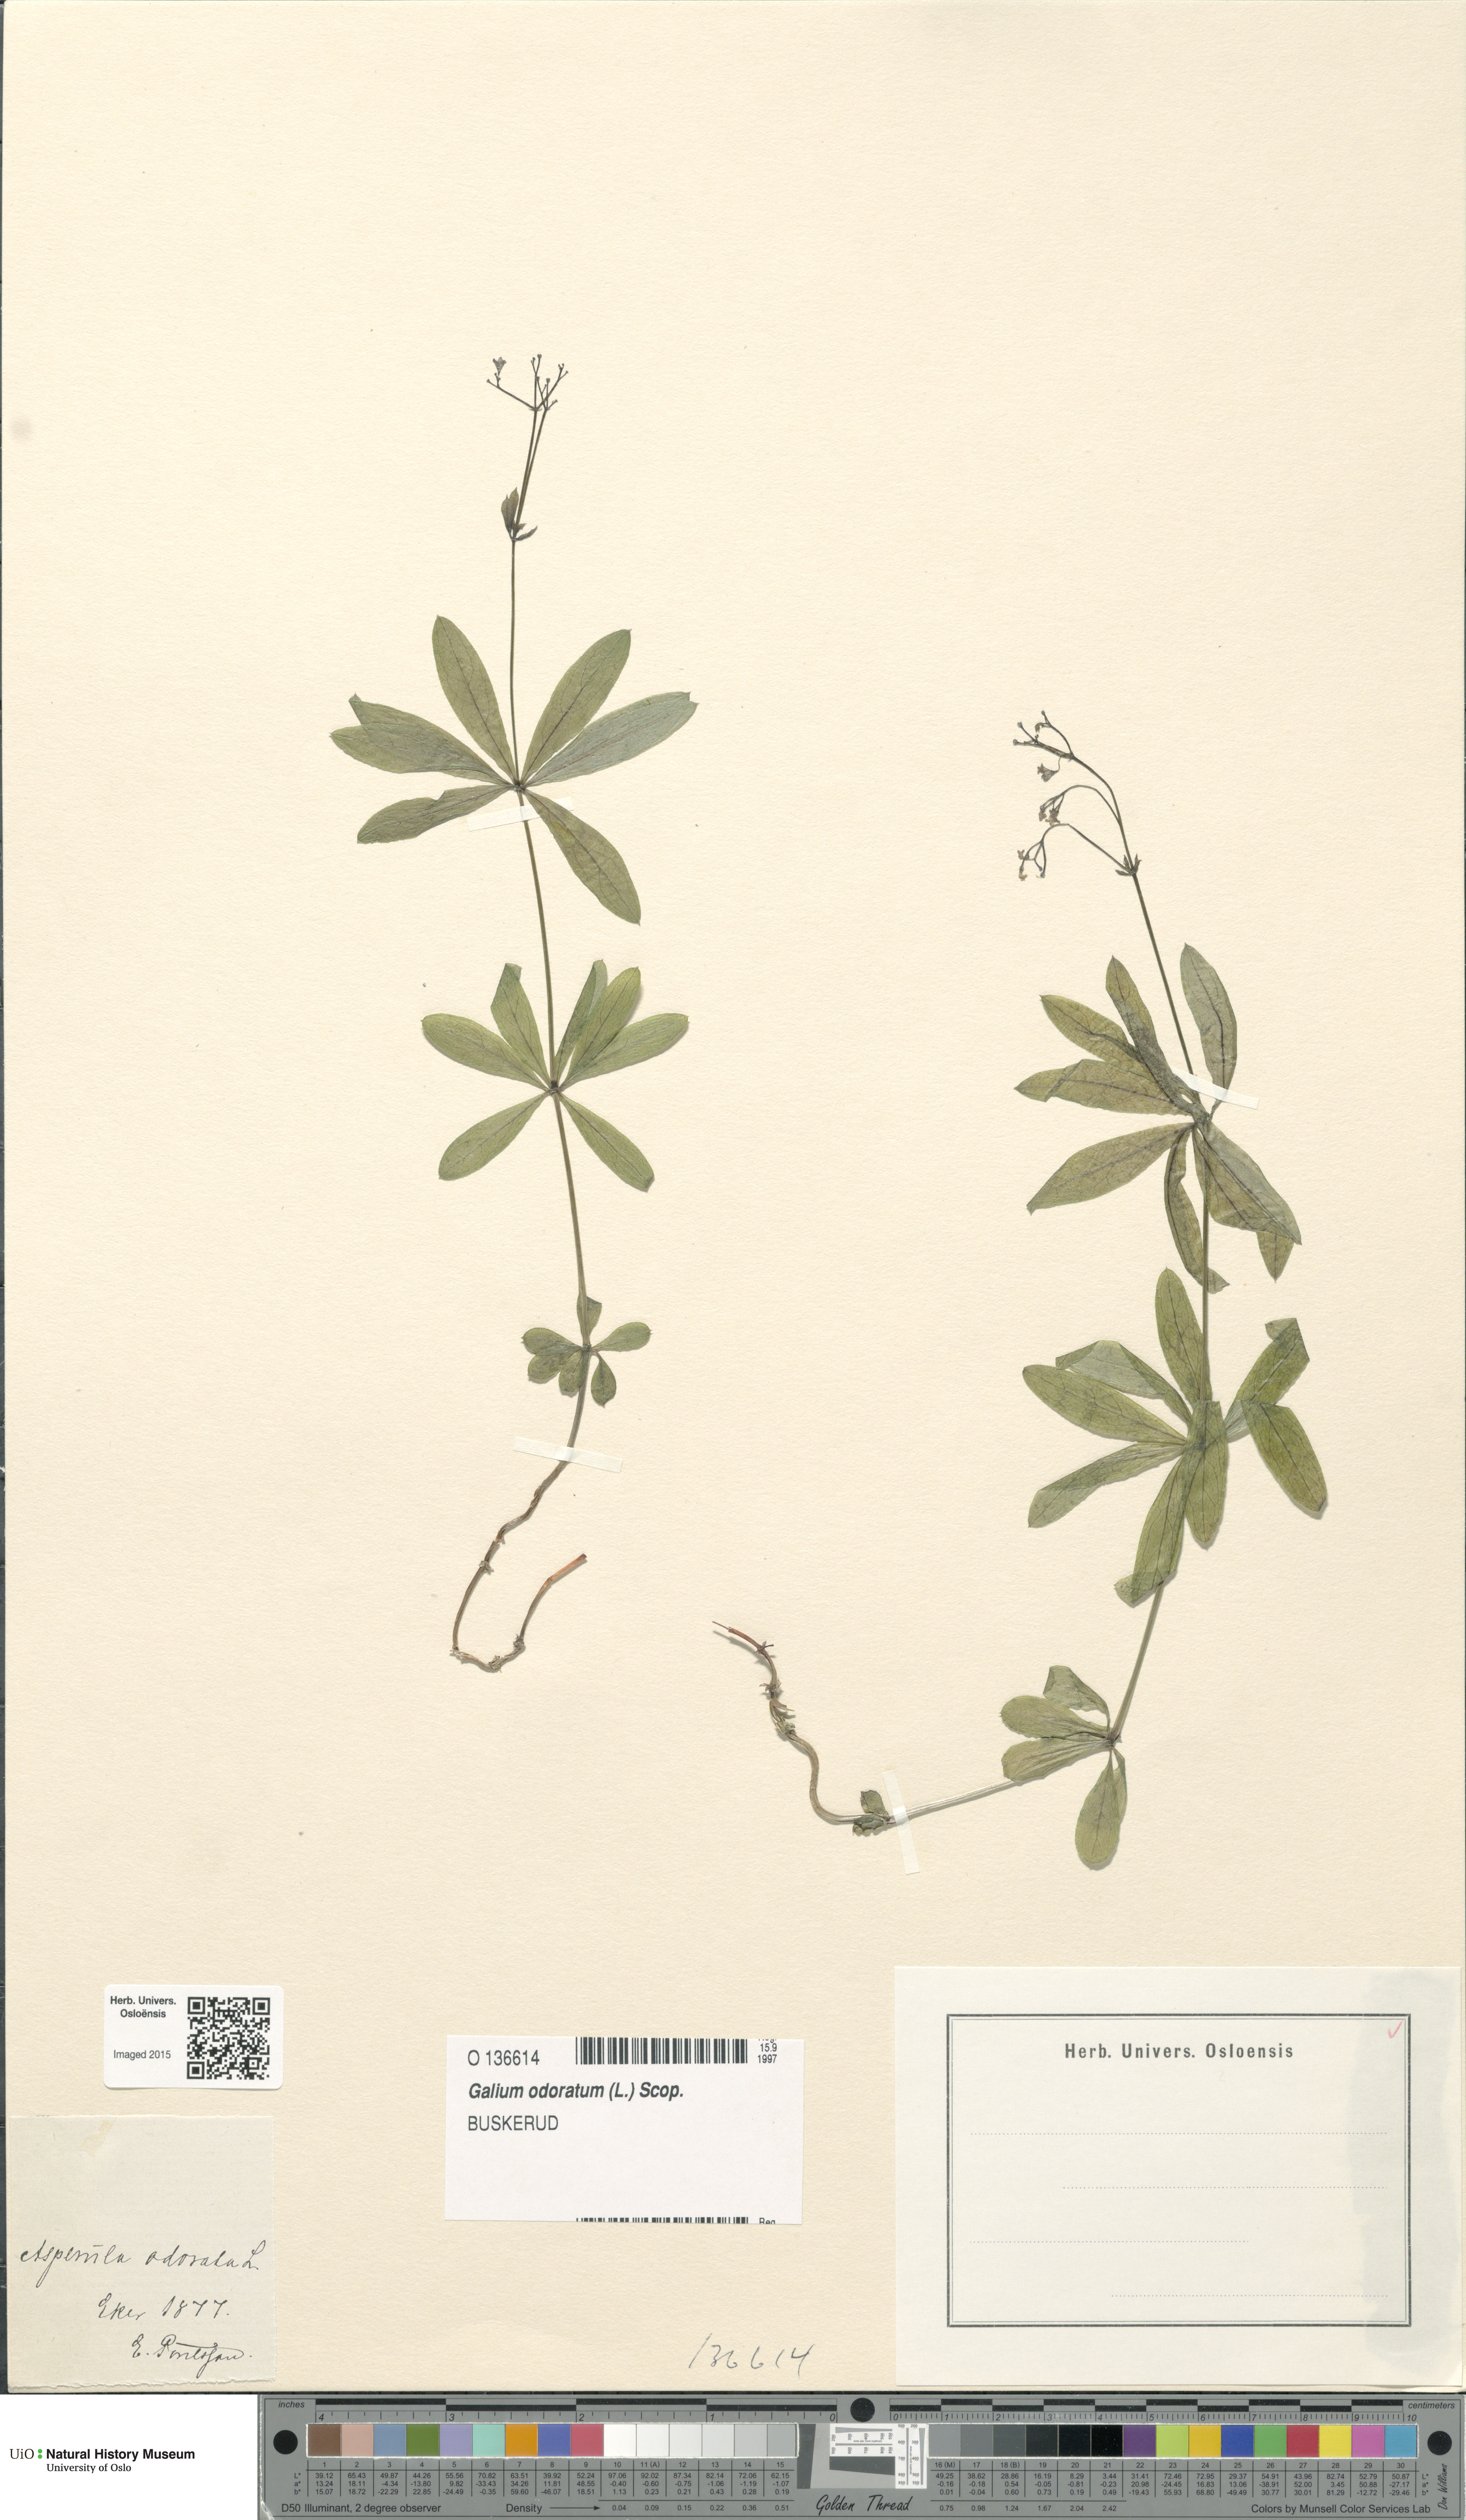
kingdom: Plantae
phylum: Tracheophyta
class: Magnoliopsida
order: Gentianales
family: Rubiaceae
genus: Galium
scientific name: Galium odoratum
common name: Sweet woodruff
